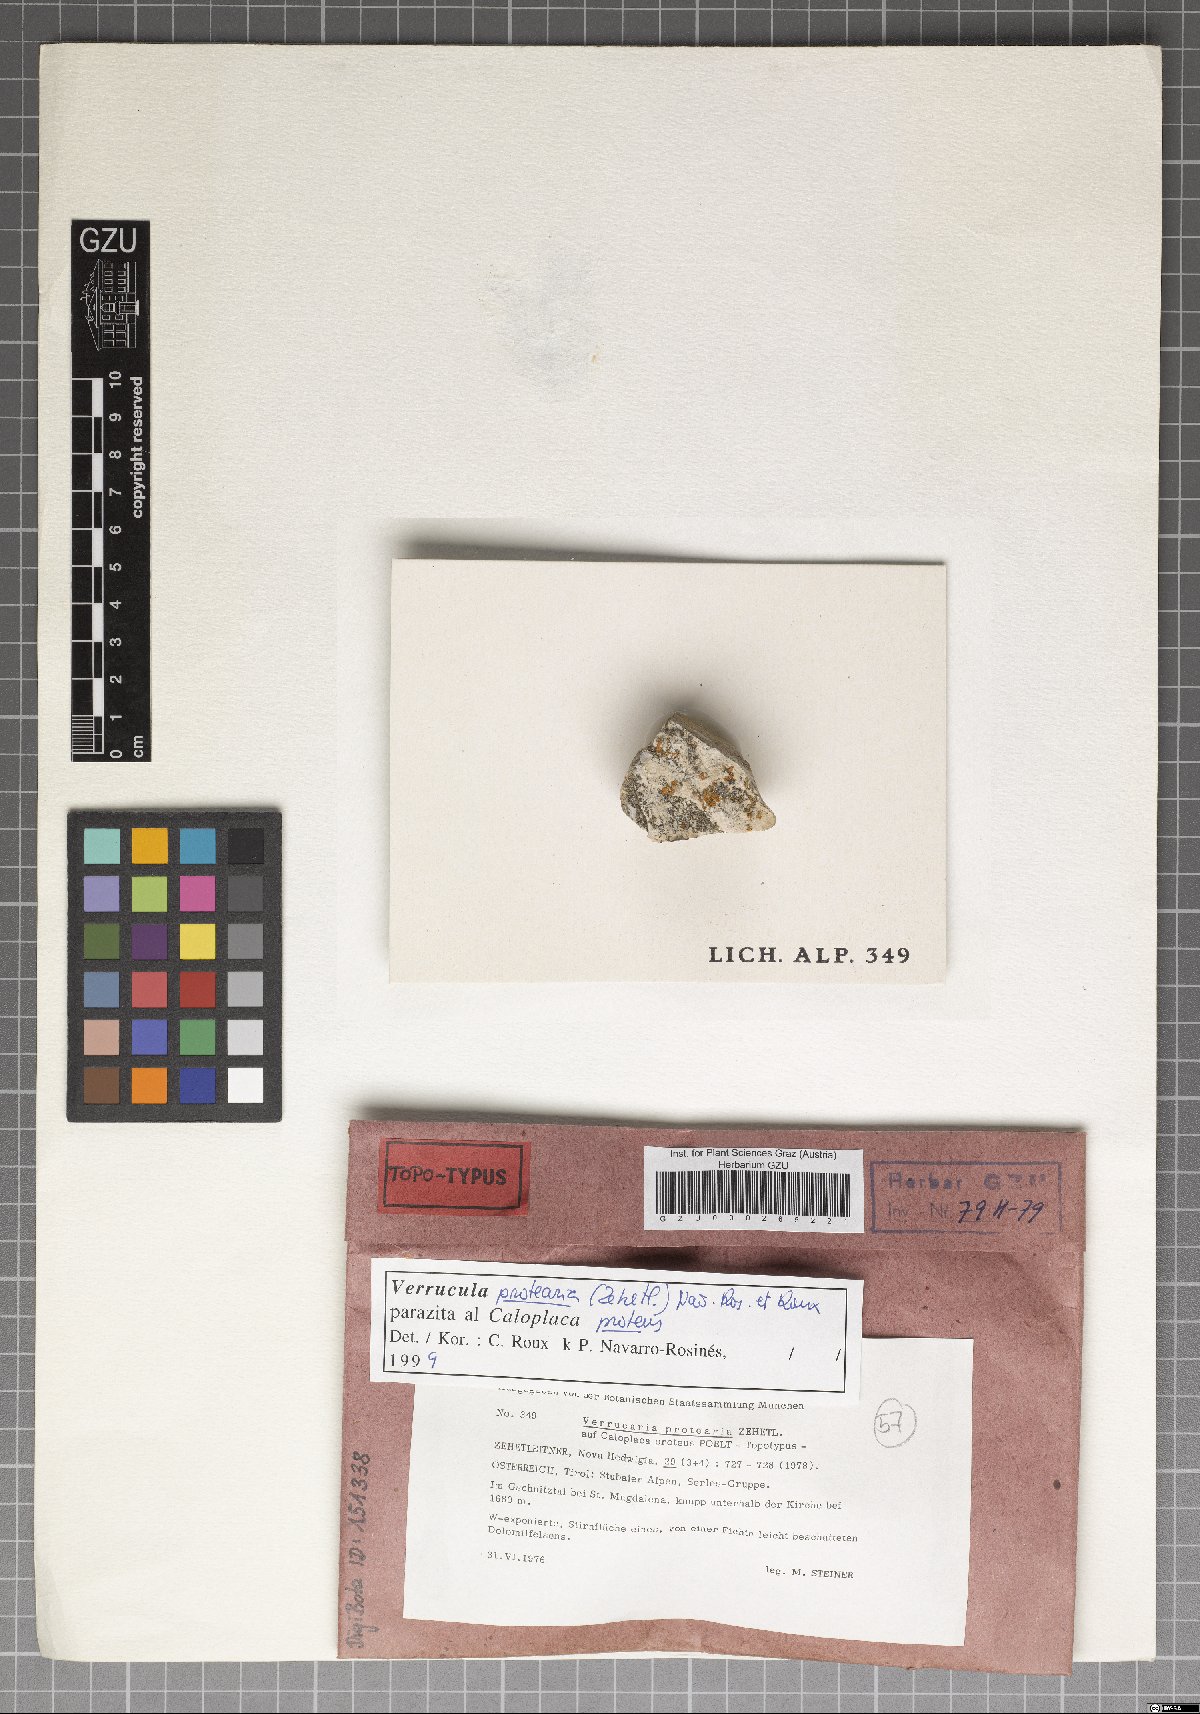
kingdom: Fungi
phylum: Ascomycota
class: Eurotiomycetes
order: Verrucariales
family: Verrucariaceae
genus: Verrucula
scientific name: Verrucula protearia
